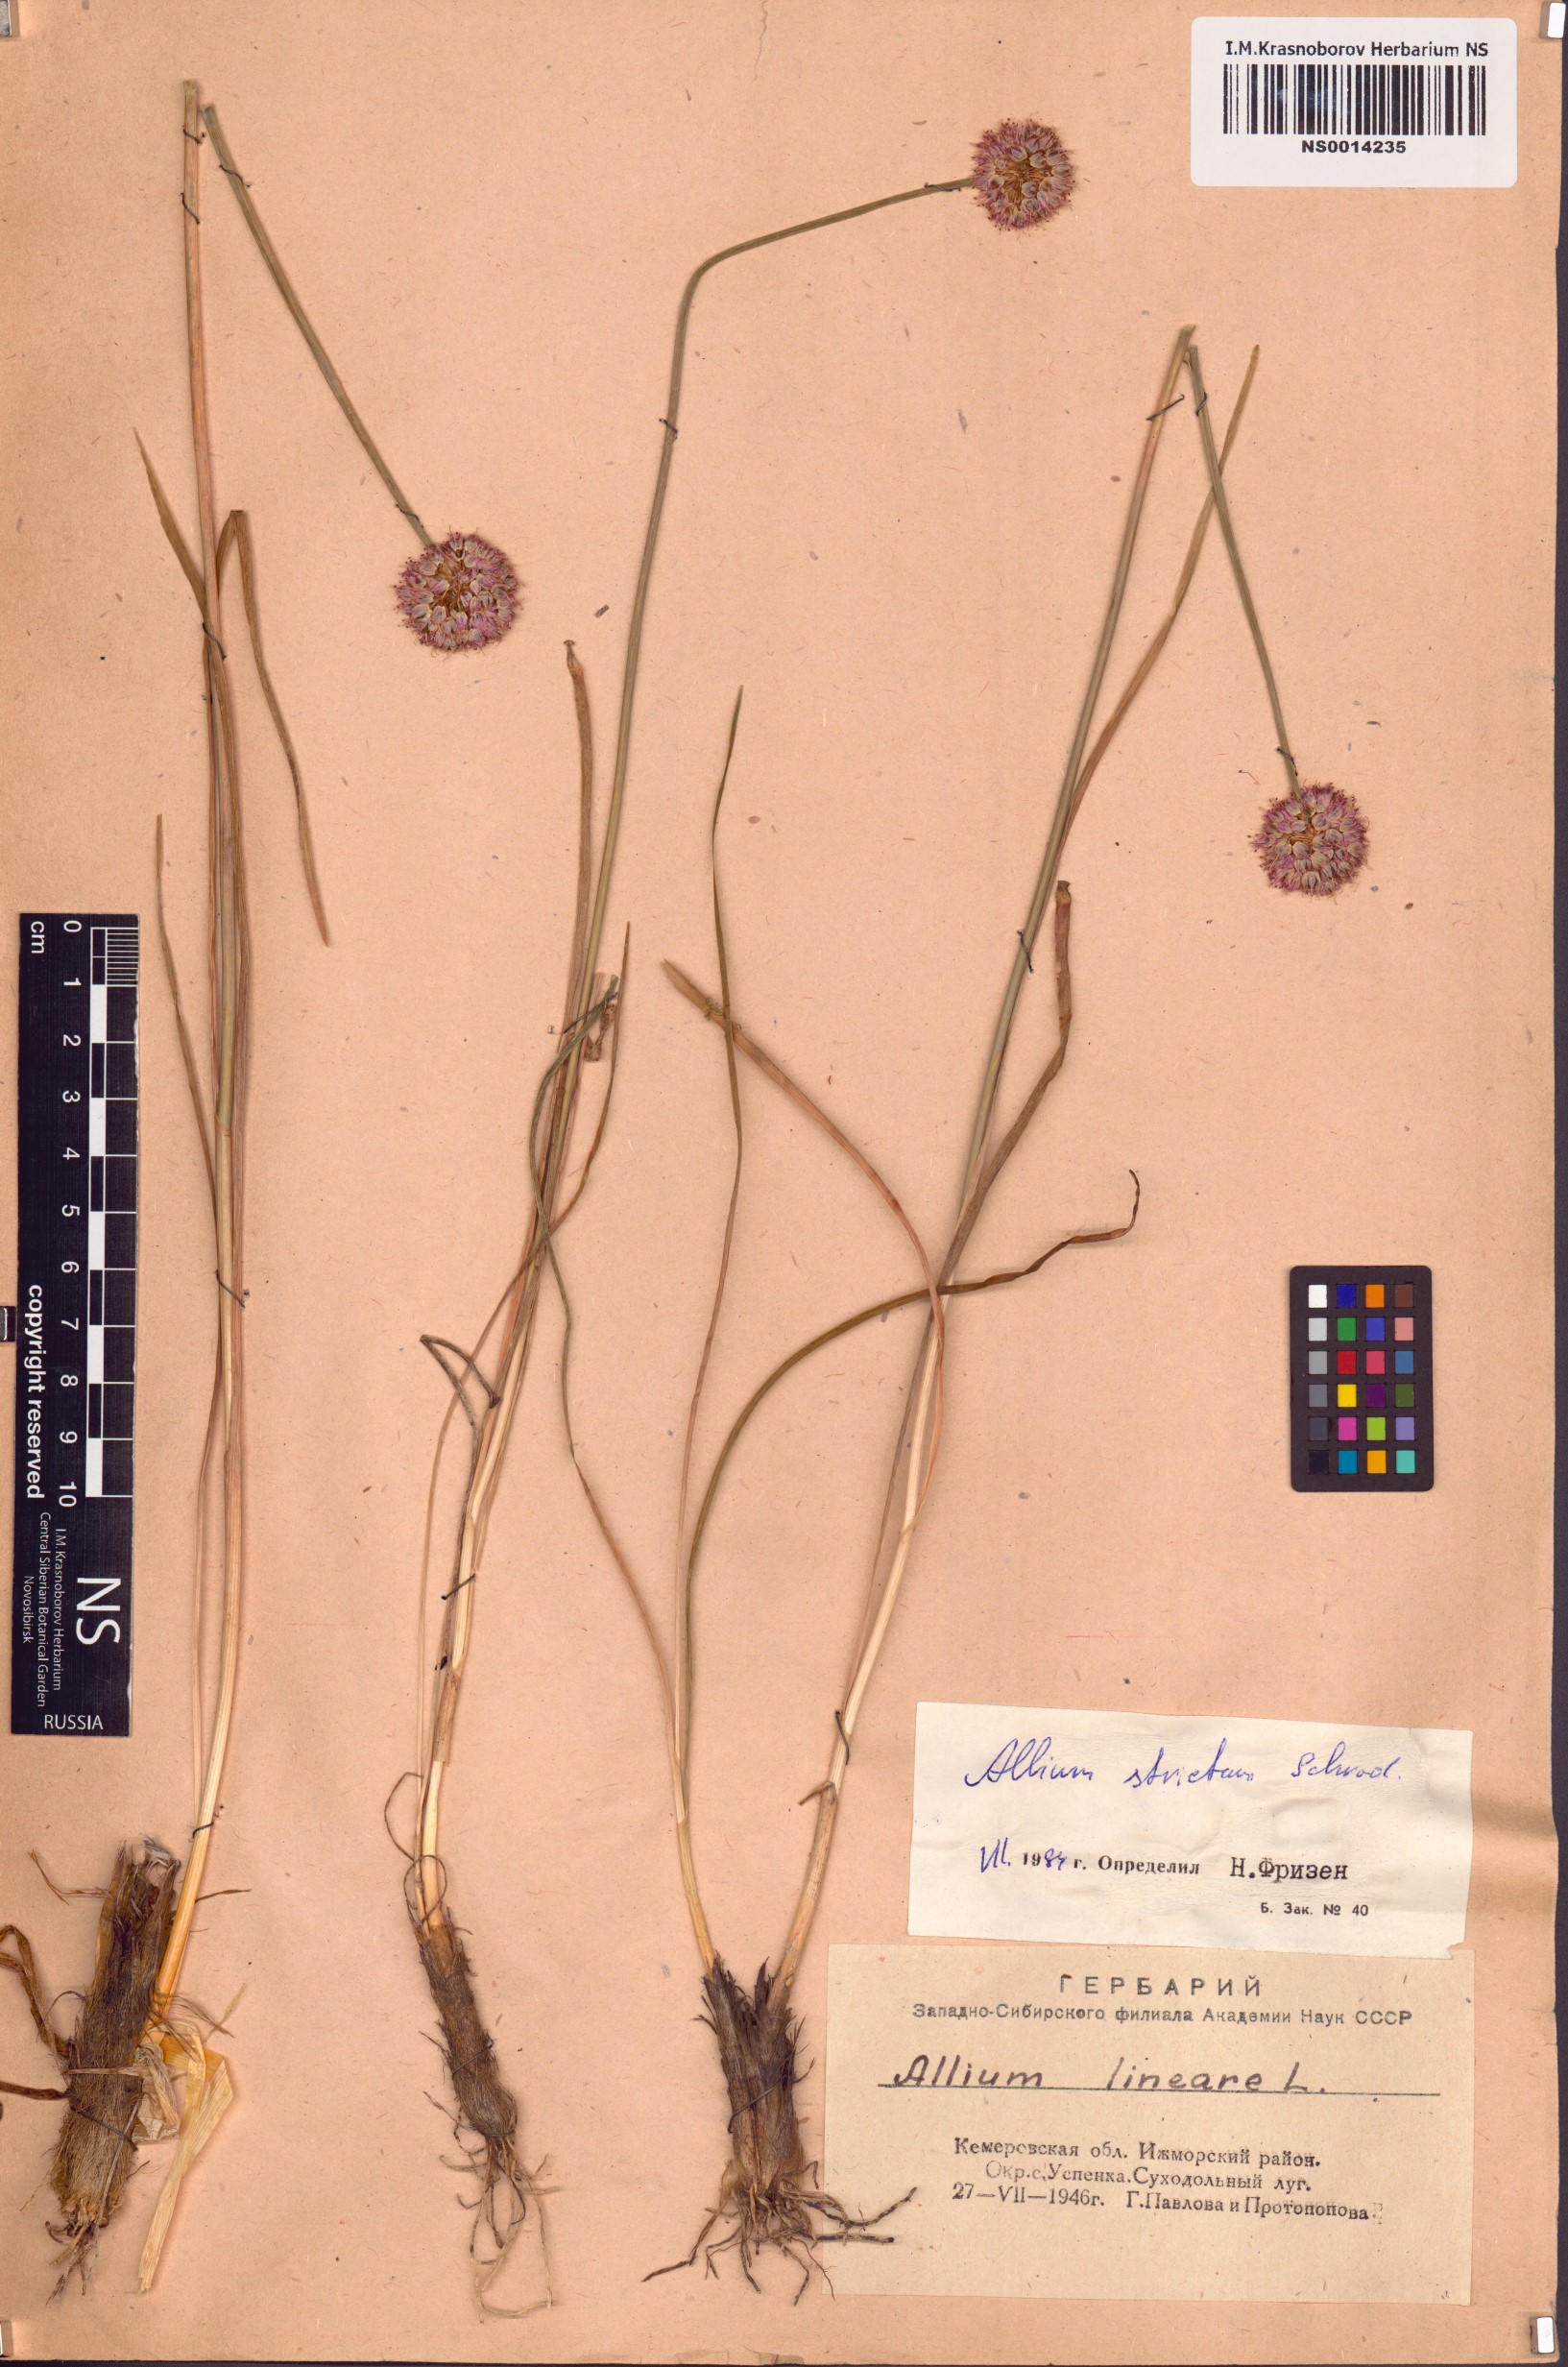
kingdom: Plantae
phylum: Tracheophyta
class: Liliopsida
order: Asparagales
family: Amaryllidaceae
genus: Allium
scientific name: Allium strictum
